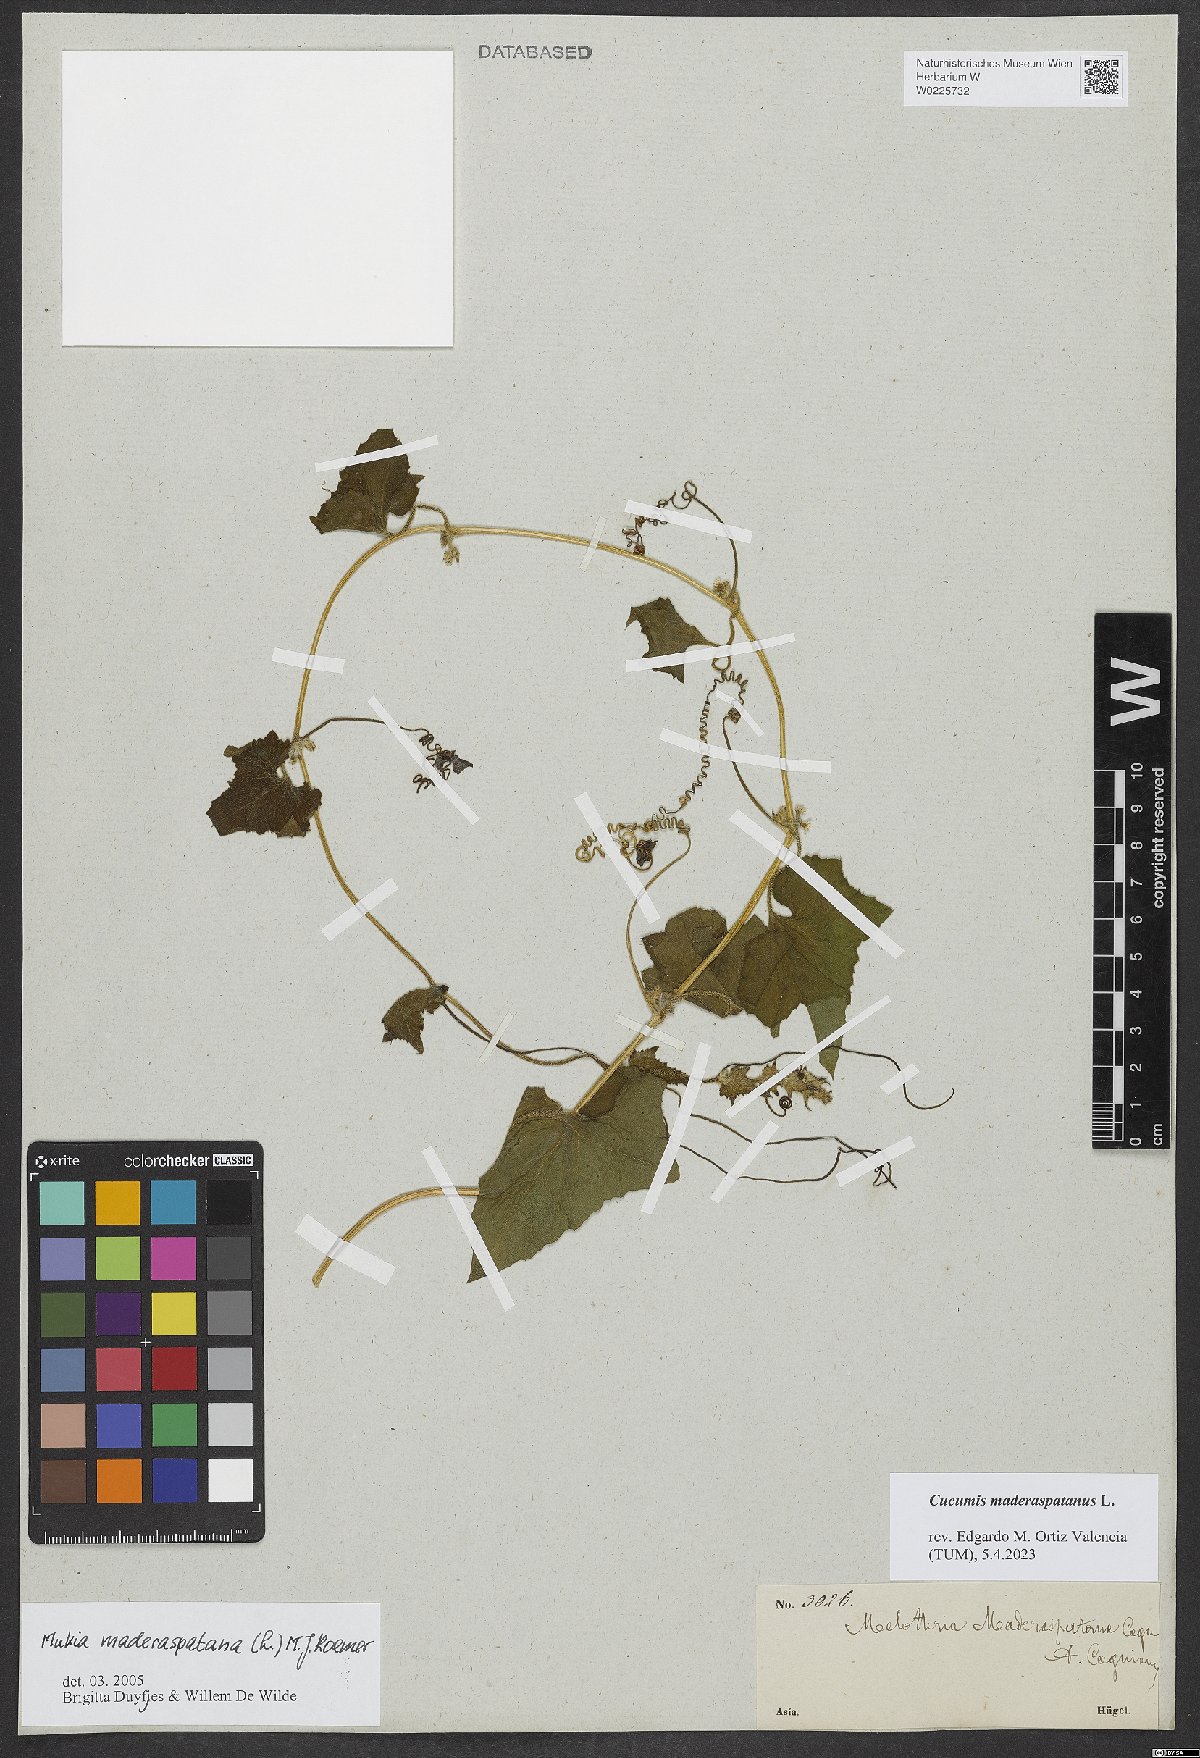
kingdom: Plantae
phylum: Tracheophyta
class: Magnoliopsida
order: Cucurbitales
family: Cucurbitaceae
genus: Cucumis
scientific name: Cucumis maderaspatanus
